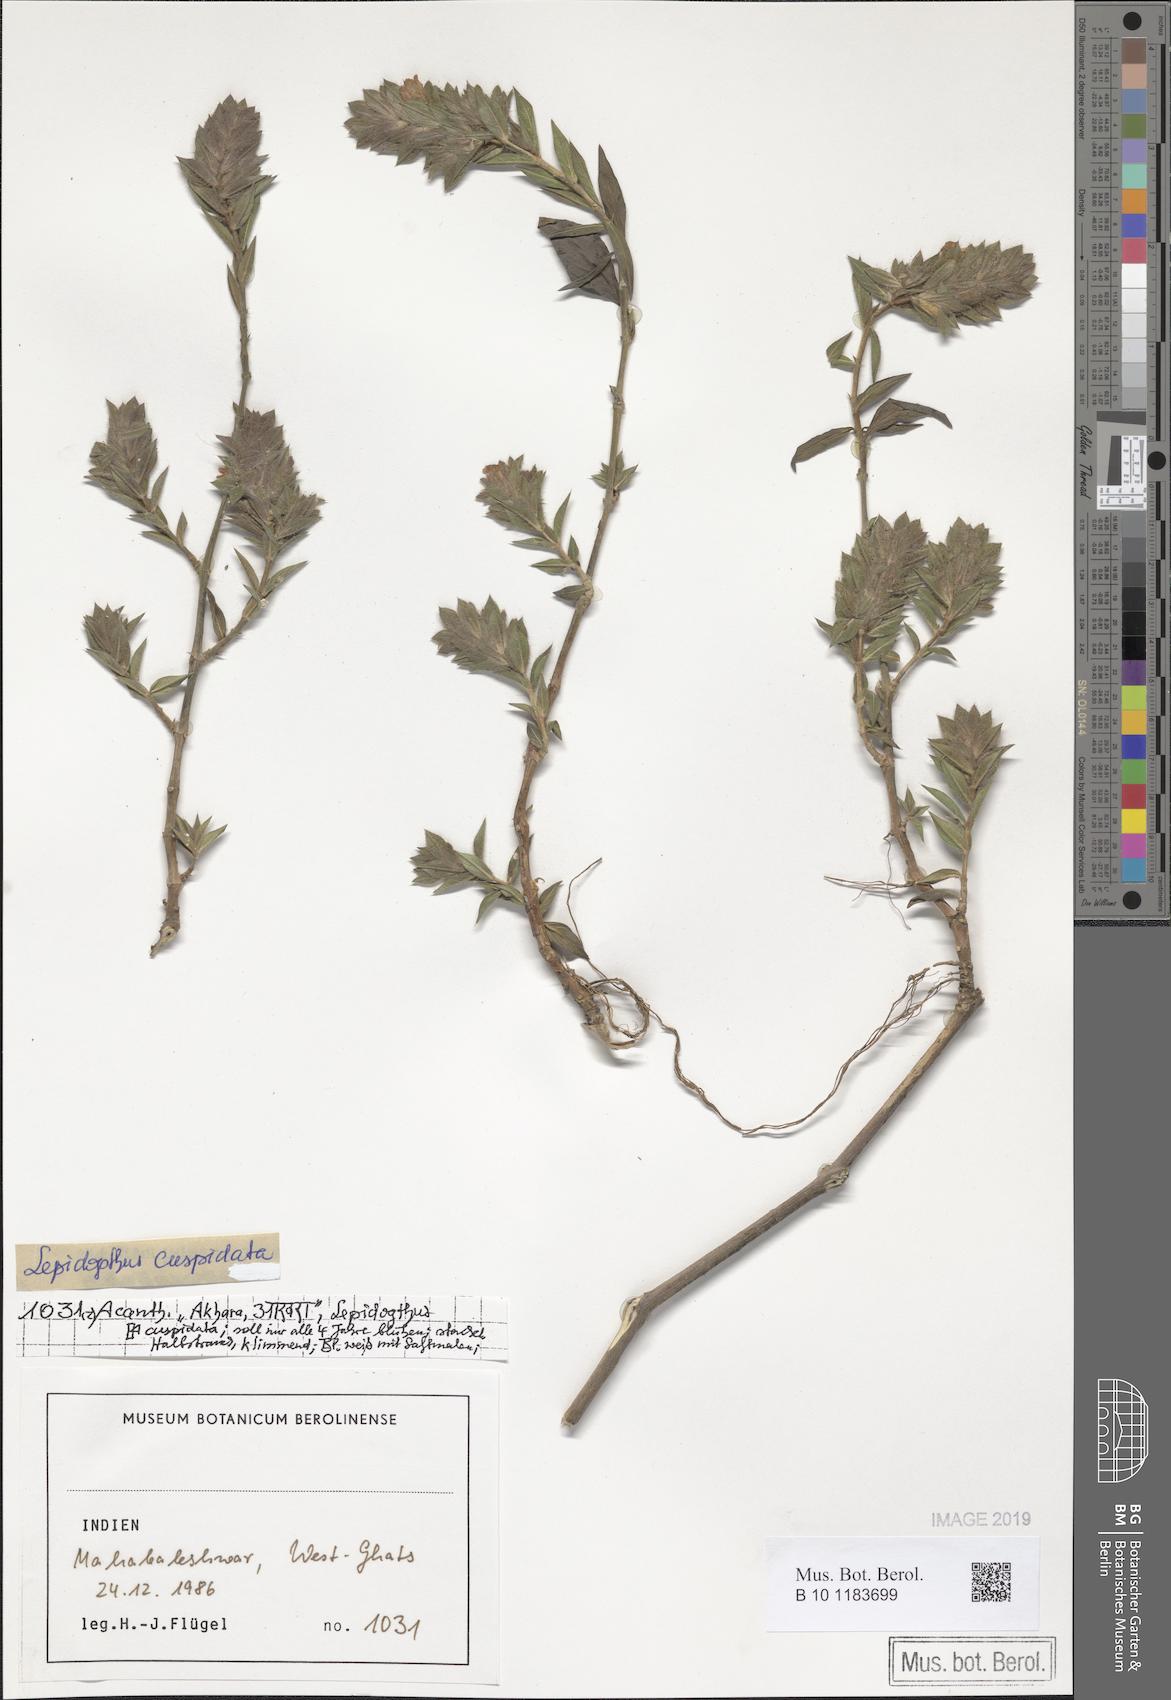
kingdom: Plantae
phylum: Tracheophyta
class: Magnoliopsida
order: Lamiales
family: Acanthaceae
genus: Lepidagathis
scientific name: Lepidagathis cuspidata
